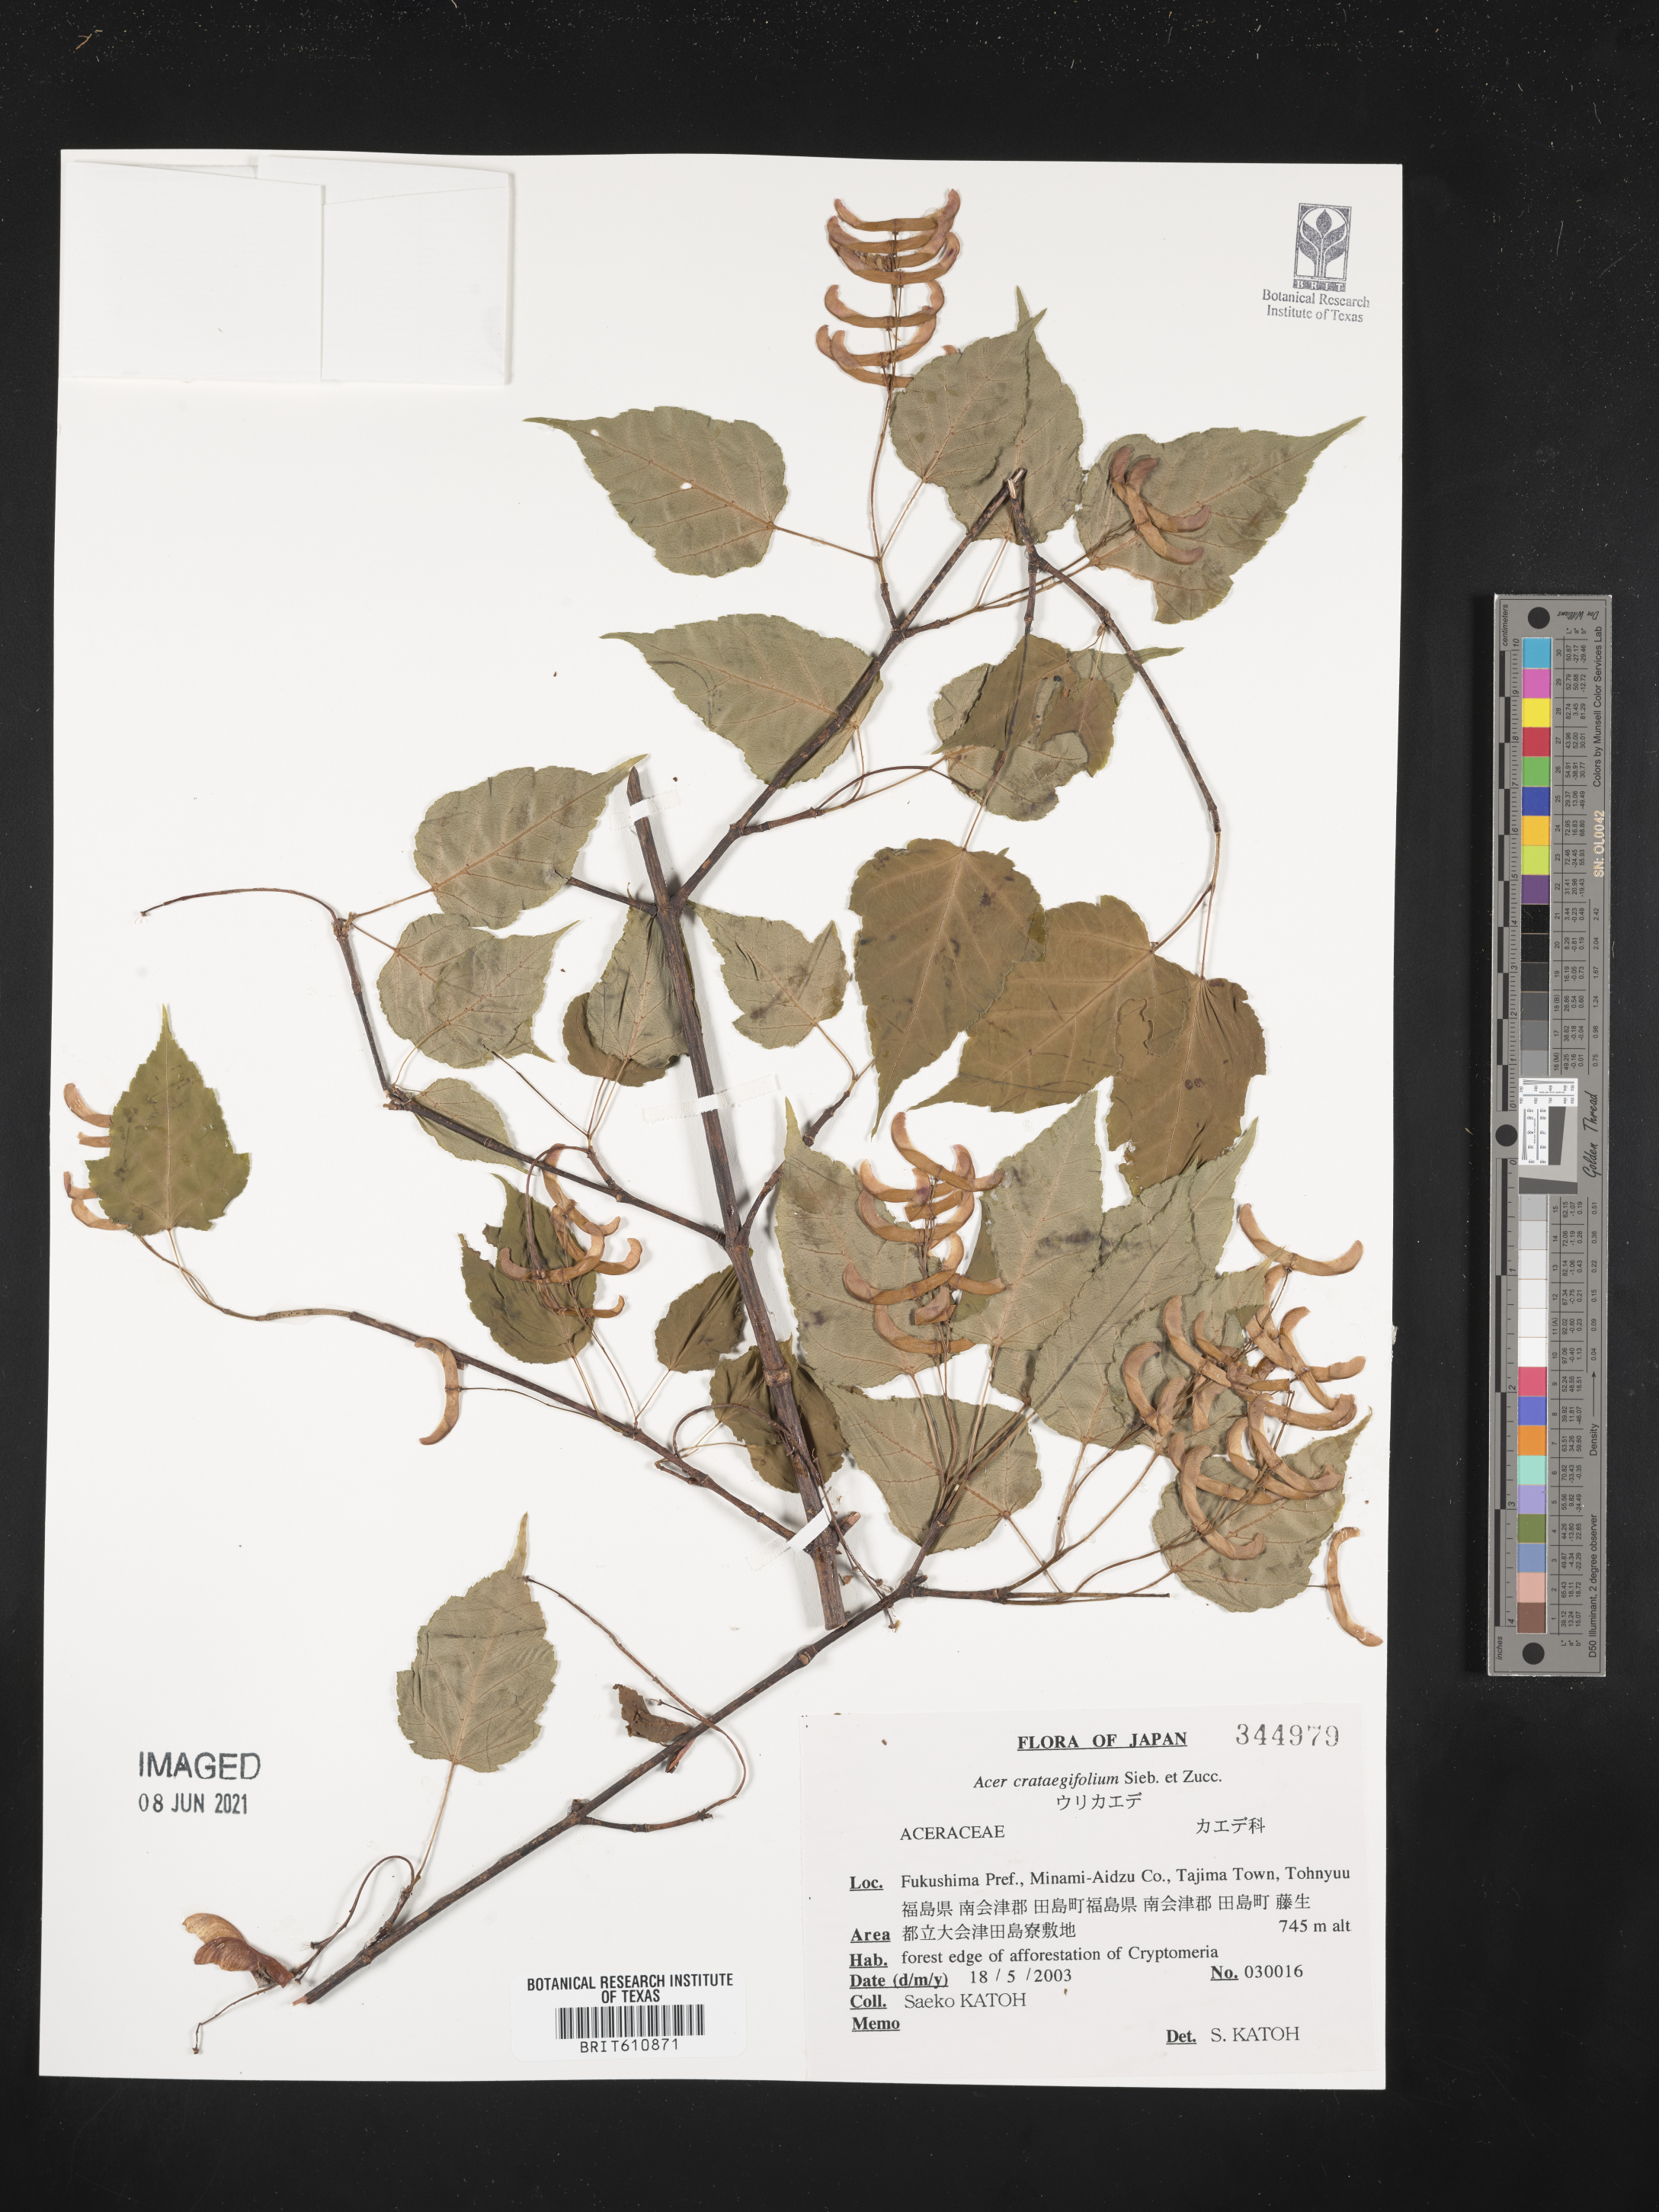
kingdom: Plantae
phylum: Tracheophyta
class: Magnoliopsida
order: Sapindales
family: Sapindaceae
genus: Acer
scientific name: Acer crataegifolium
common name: Hawthorn-leaf maple
